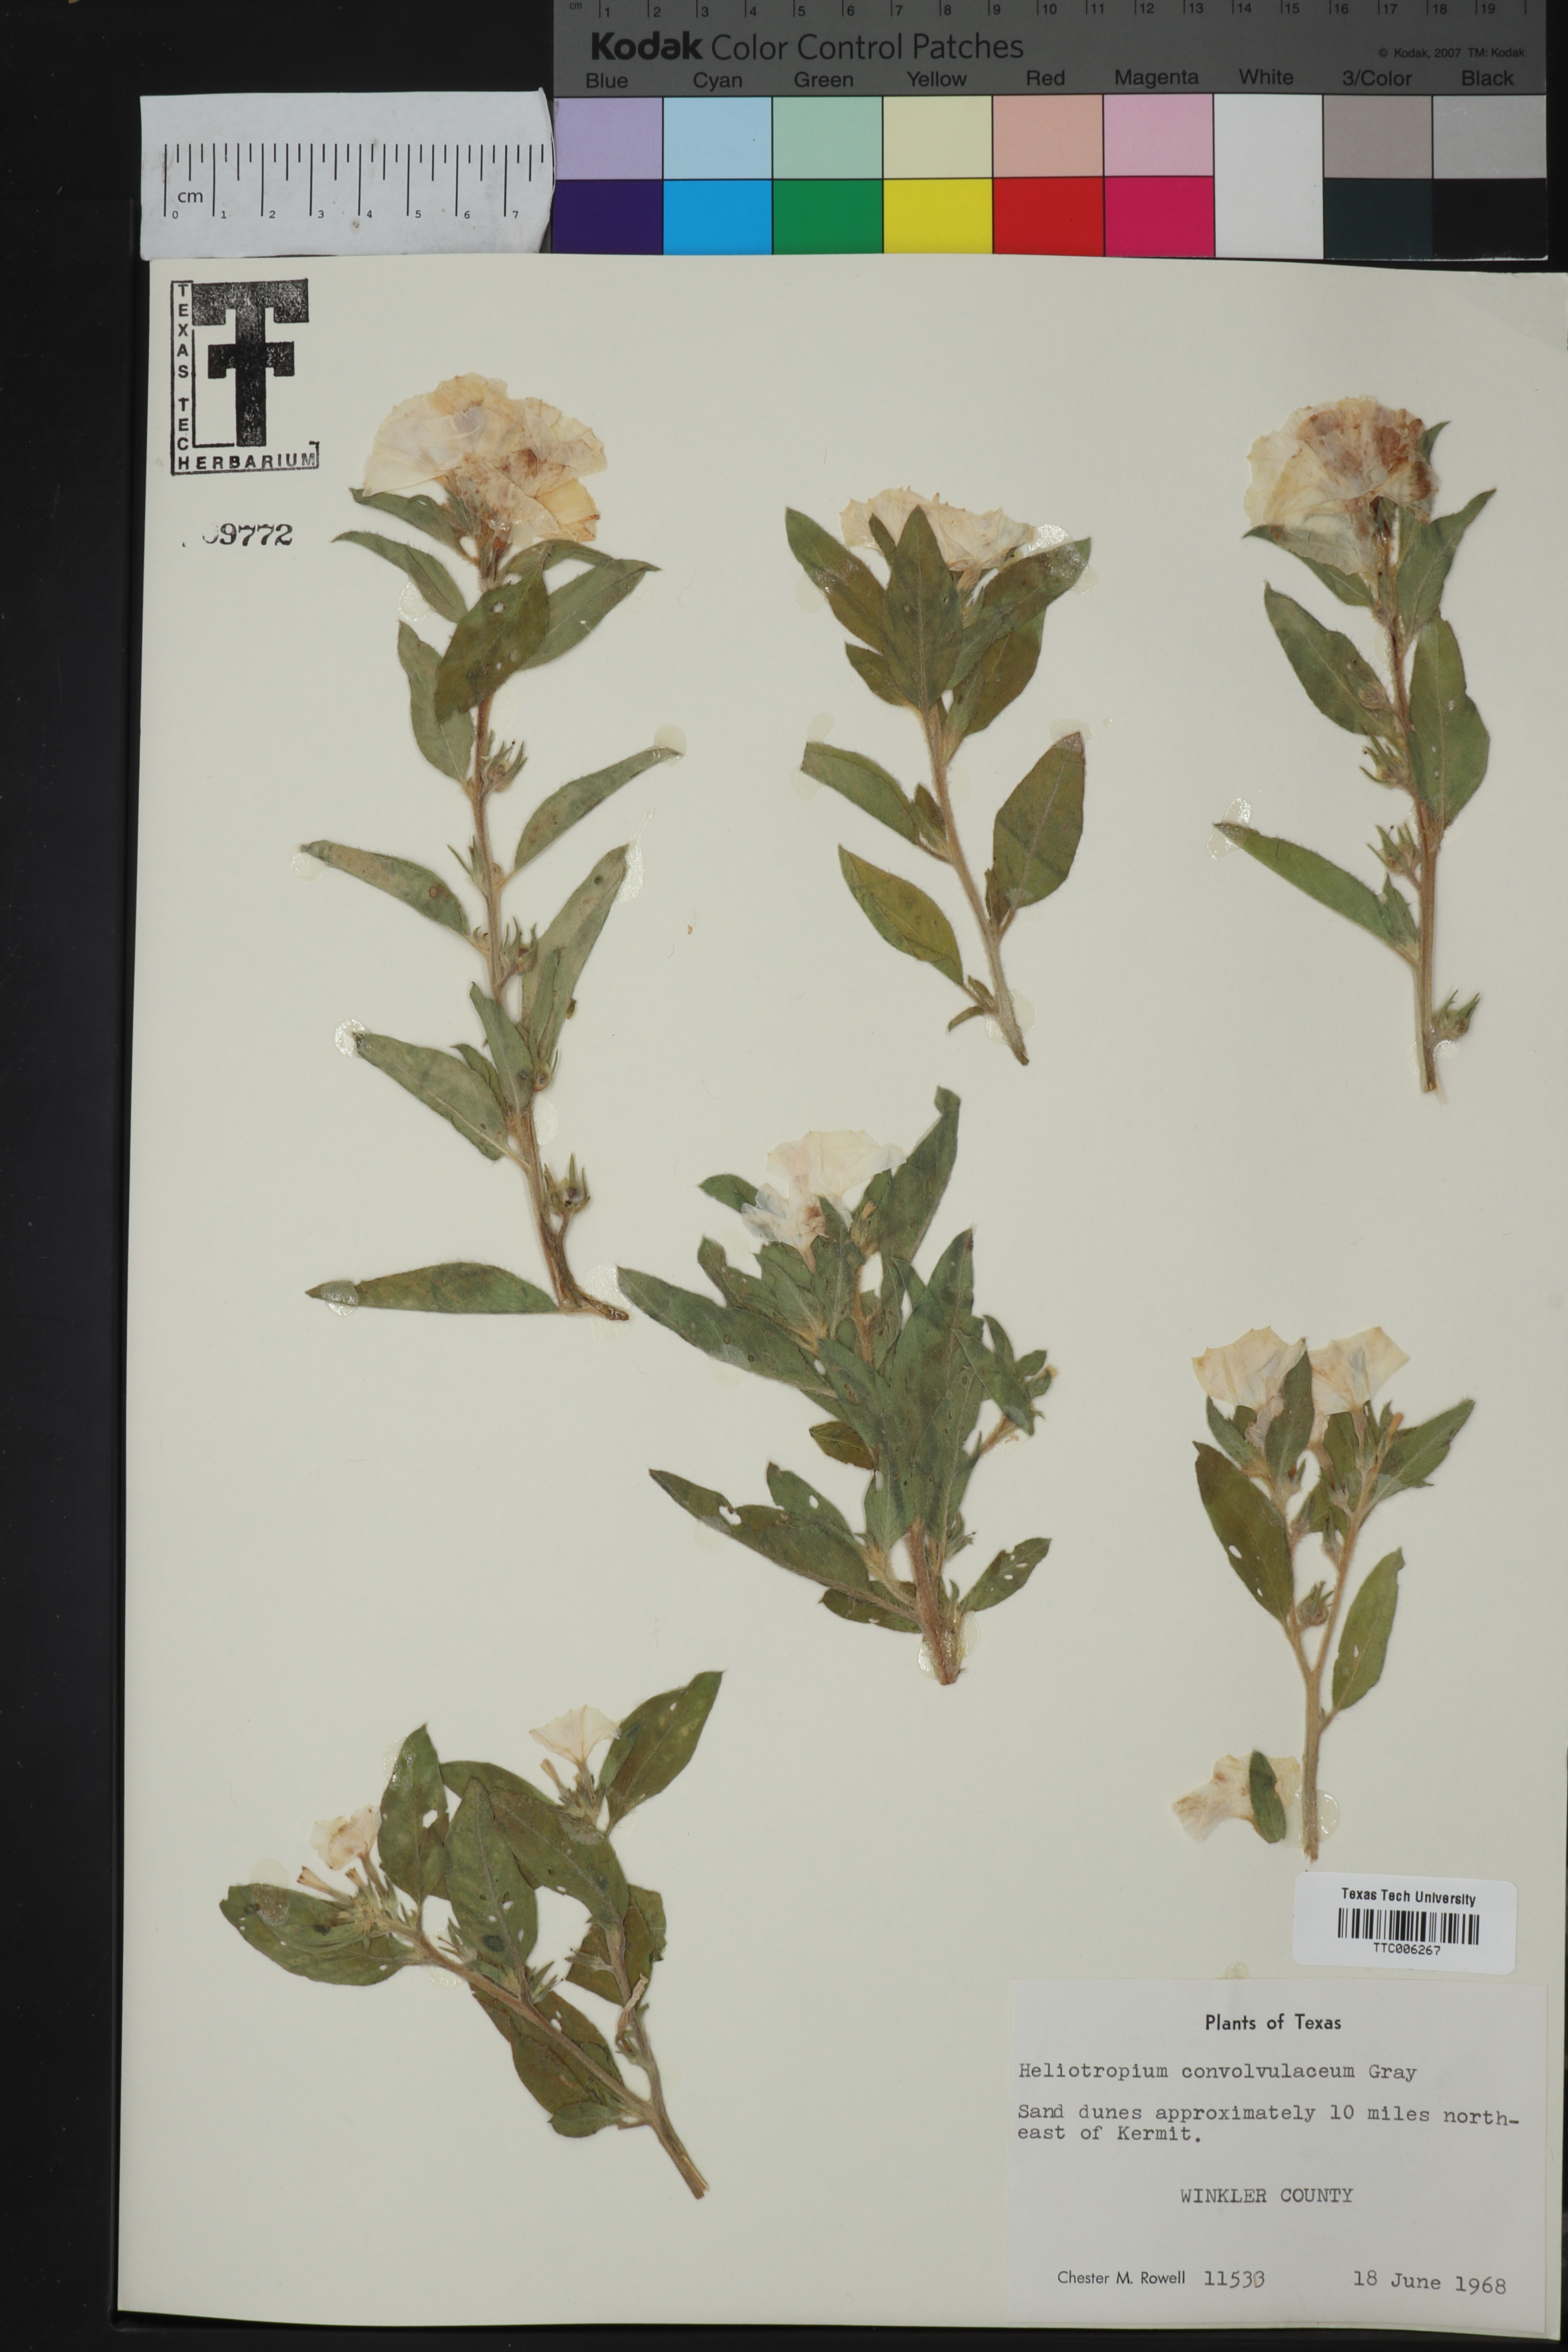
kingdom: Plantae
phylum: Tracheophyta
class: Magnoliopsida
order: Boraginales
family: Heliotropiaceae
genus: Euploca
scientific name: Euploca convolvulacea
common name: Bindweed heliotrope
